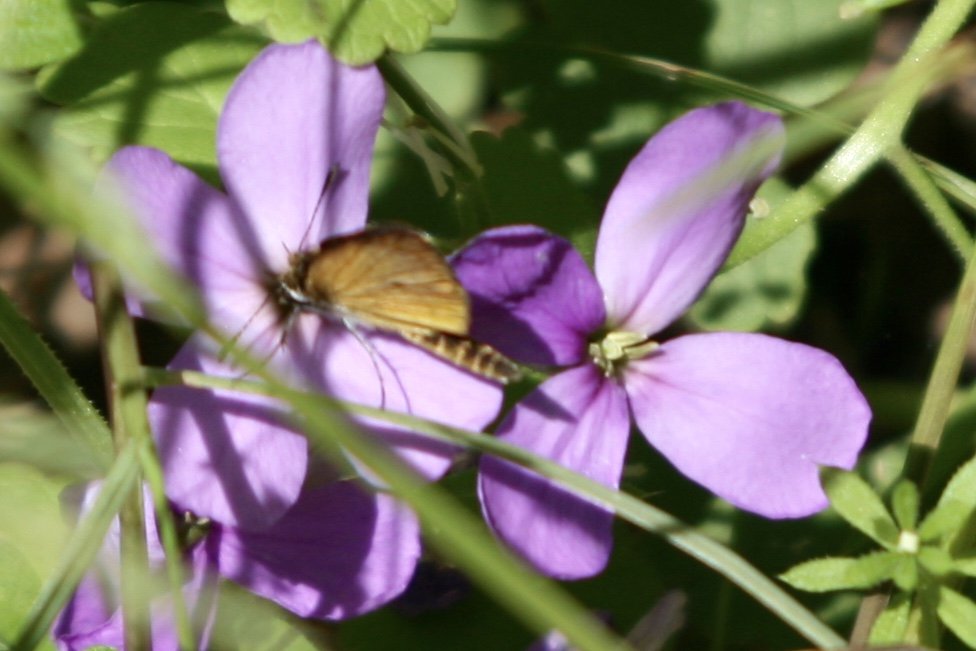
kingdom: Animalia
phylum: Arthropoda
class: Insecta
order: Lepidoptera
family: Hesperiidae
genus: Thymelicus
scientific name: Thymelicus lineola
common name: European Skipper
